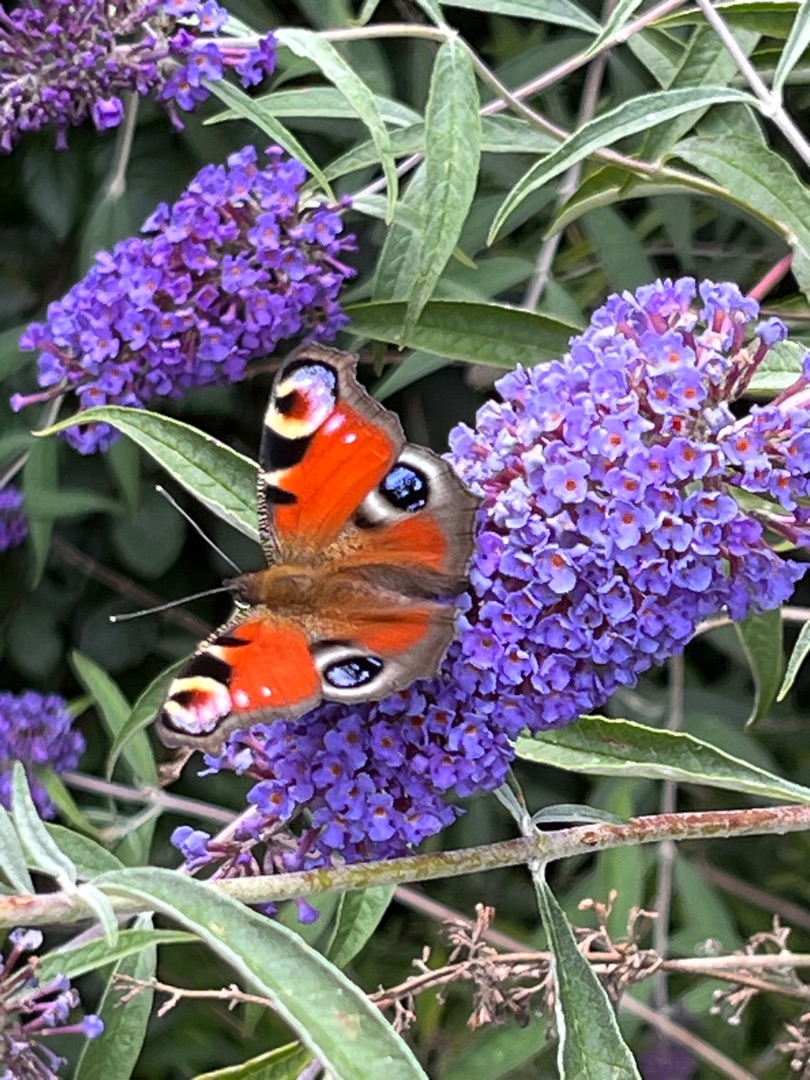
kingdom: Animalia
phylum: Arthropoda
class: Insecta
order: Lepidoptera
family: Nymphalidae
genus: Aglais
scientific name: Aglais io
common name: Dagpåfugleøje
